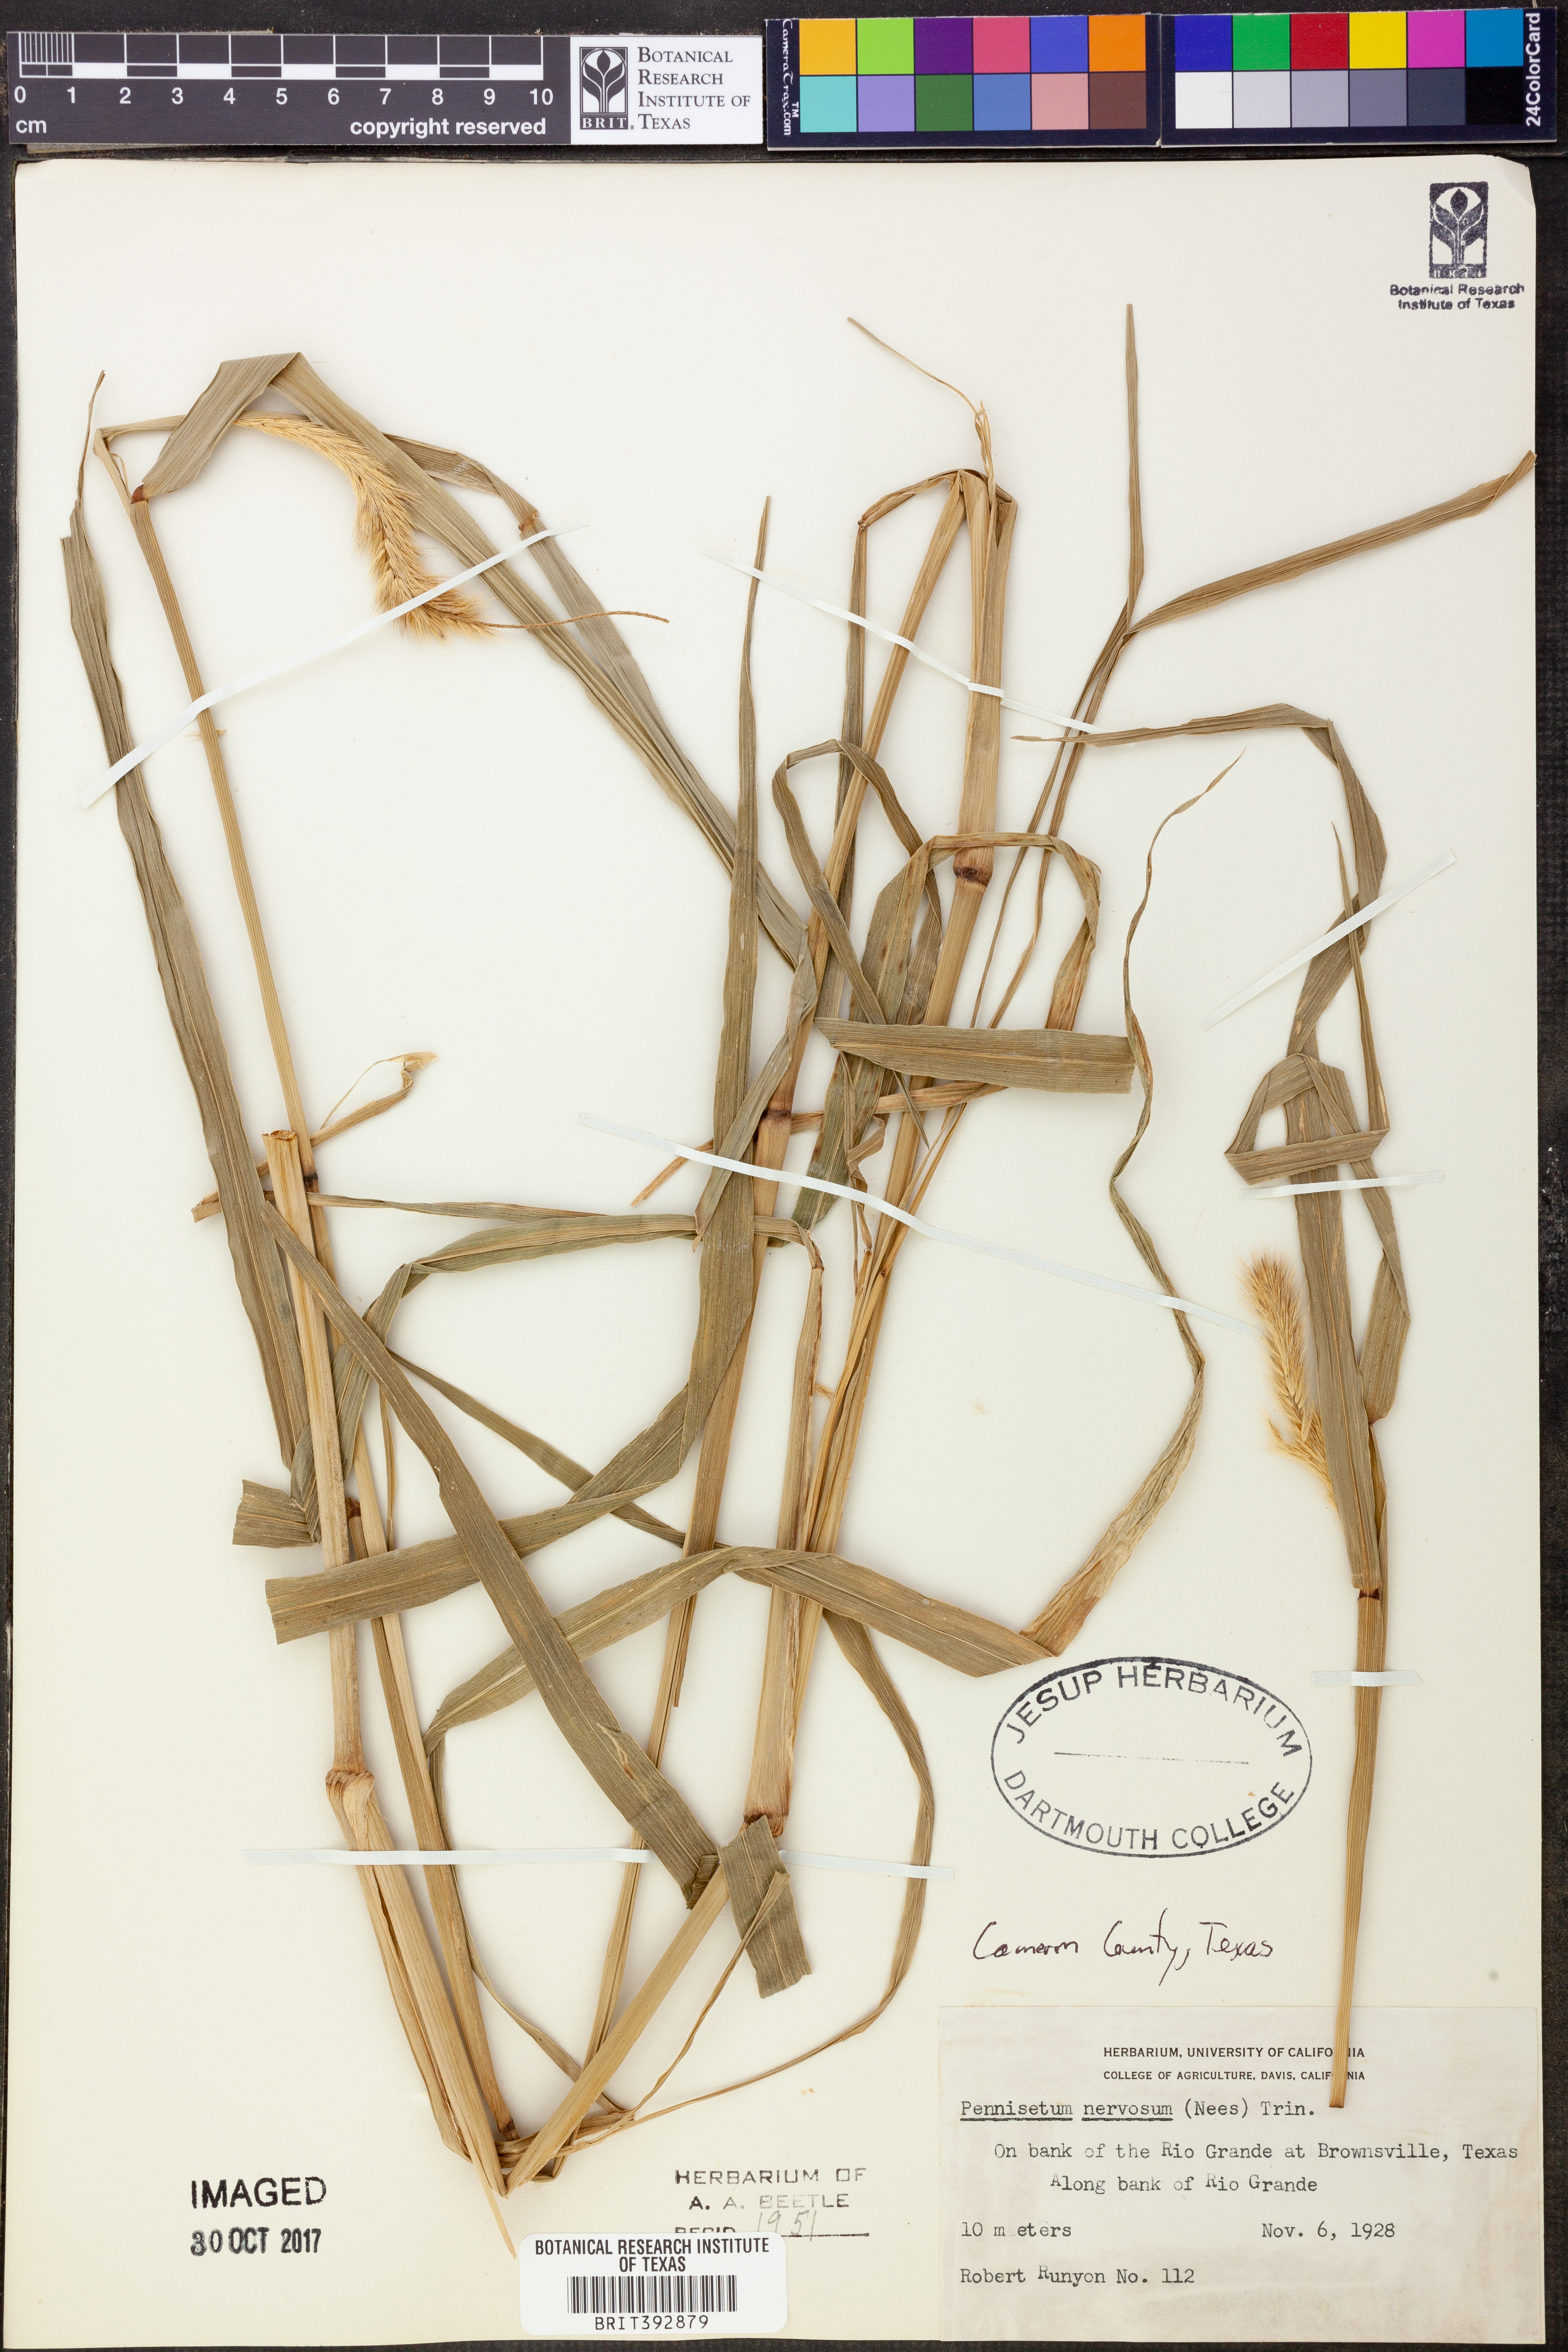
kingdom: Plantae
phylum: Tracheophyta
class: Liliopsida
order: Poales
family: Poaceae
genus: Cenchrus
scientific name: Cenchrus nervosus
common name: Bentspike fountaingrass
